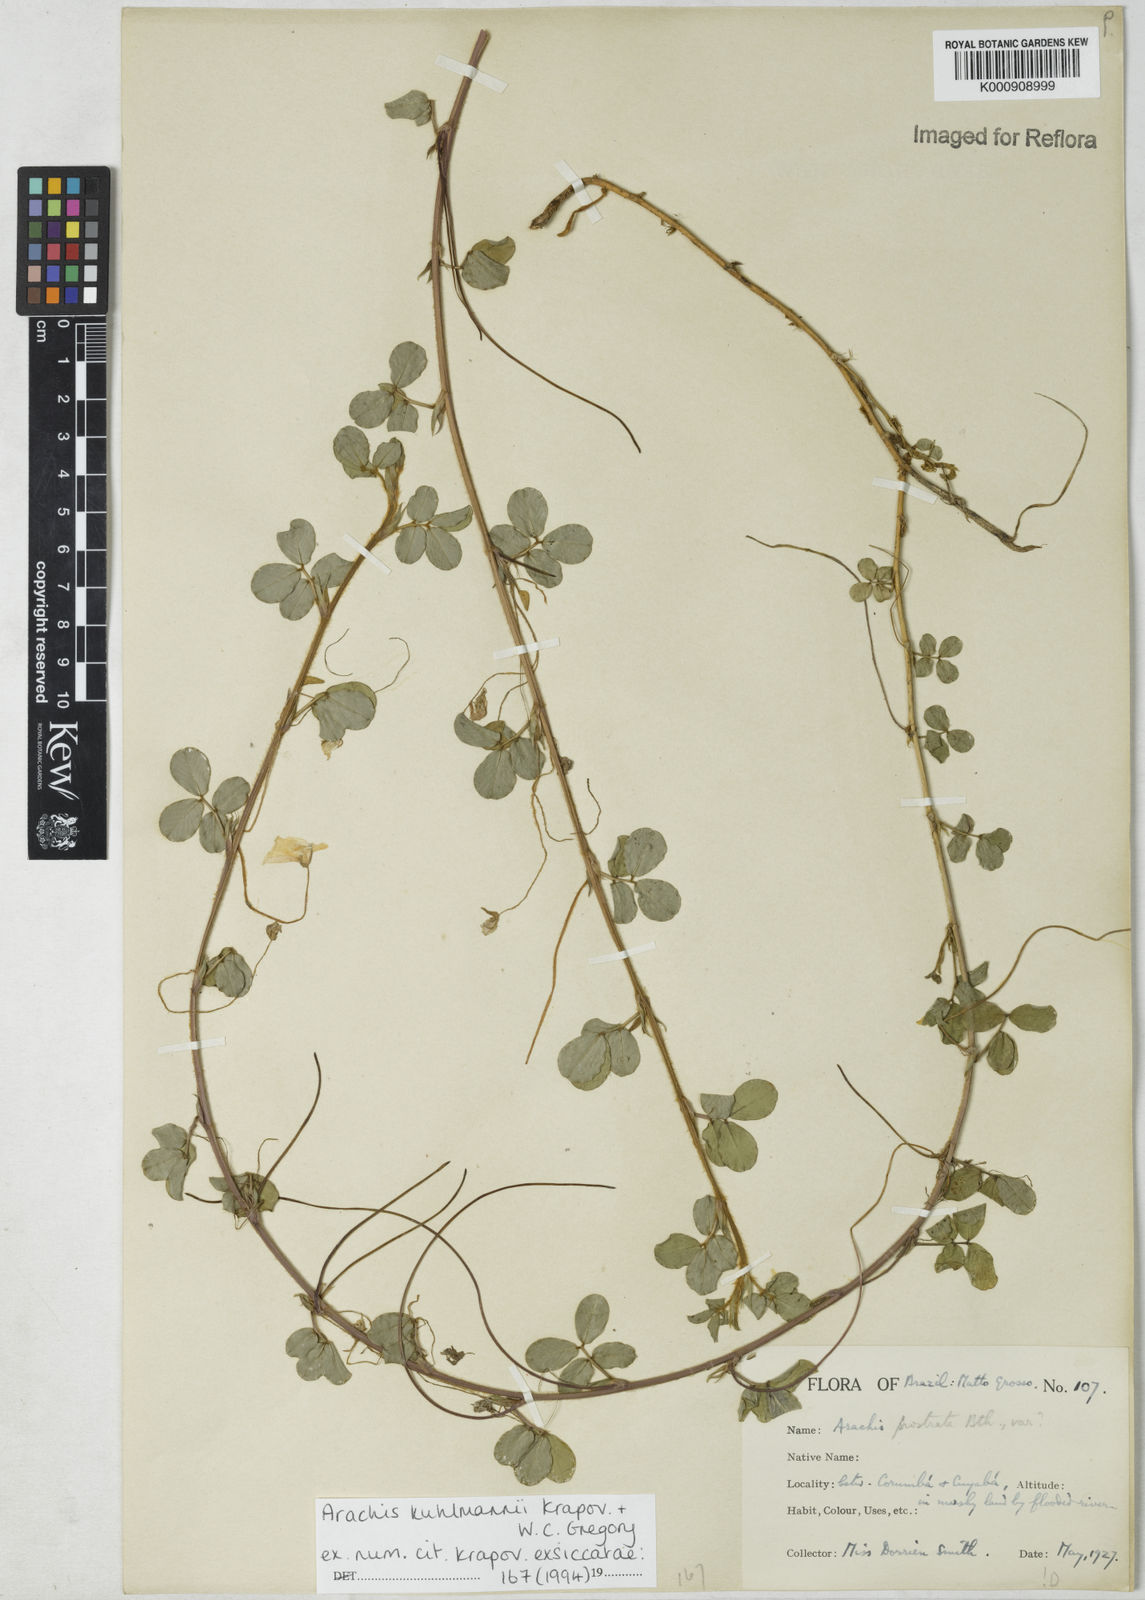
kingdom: Plantae
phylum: Tracheophyta
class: Magnoliopsida
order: Fabales
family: Fabaceae
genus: Arachis
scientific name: Arachis kuhlmannii
